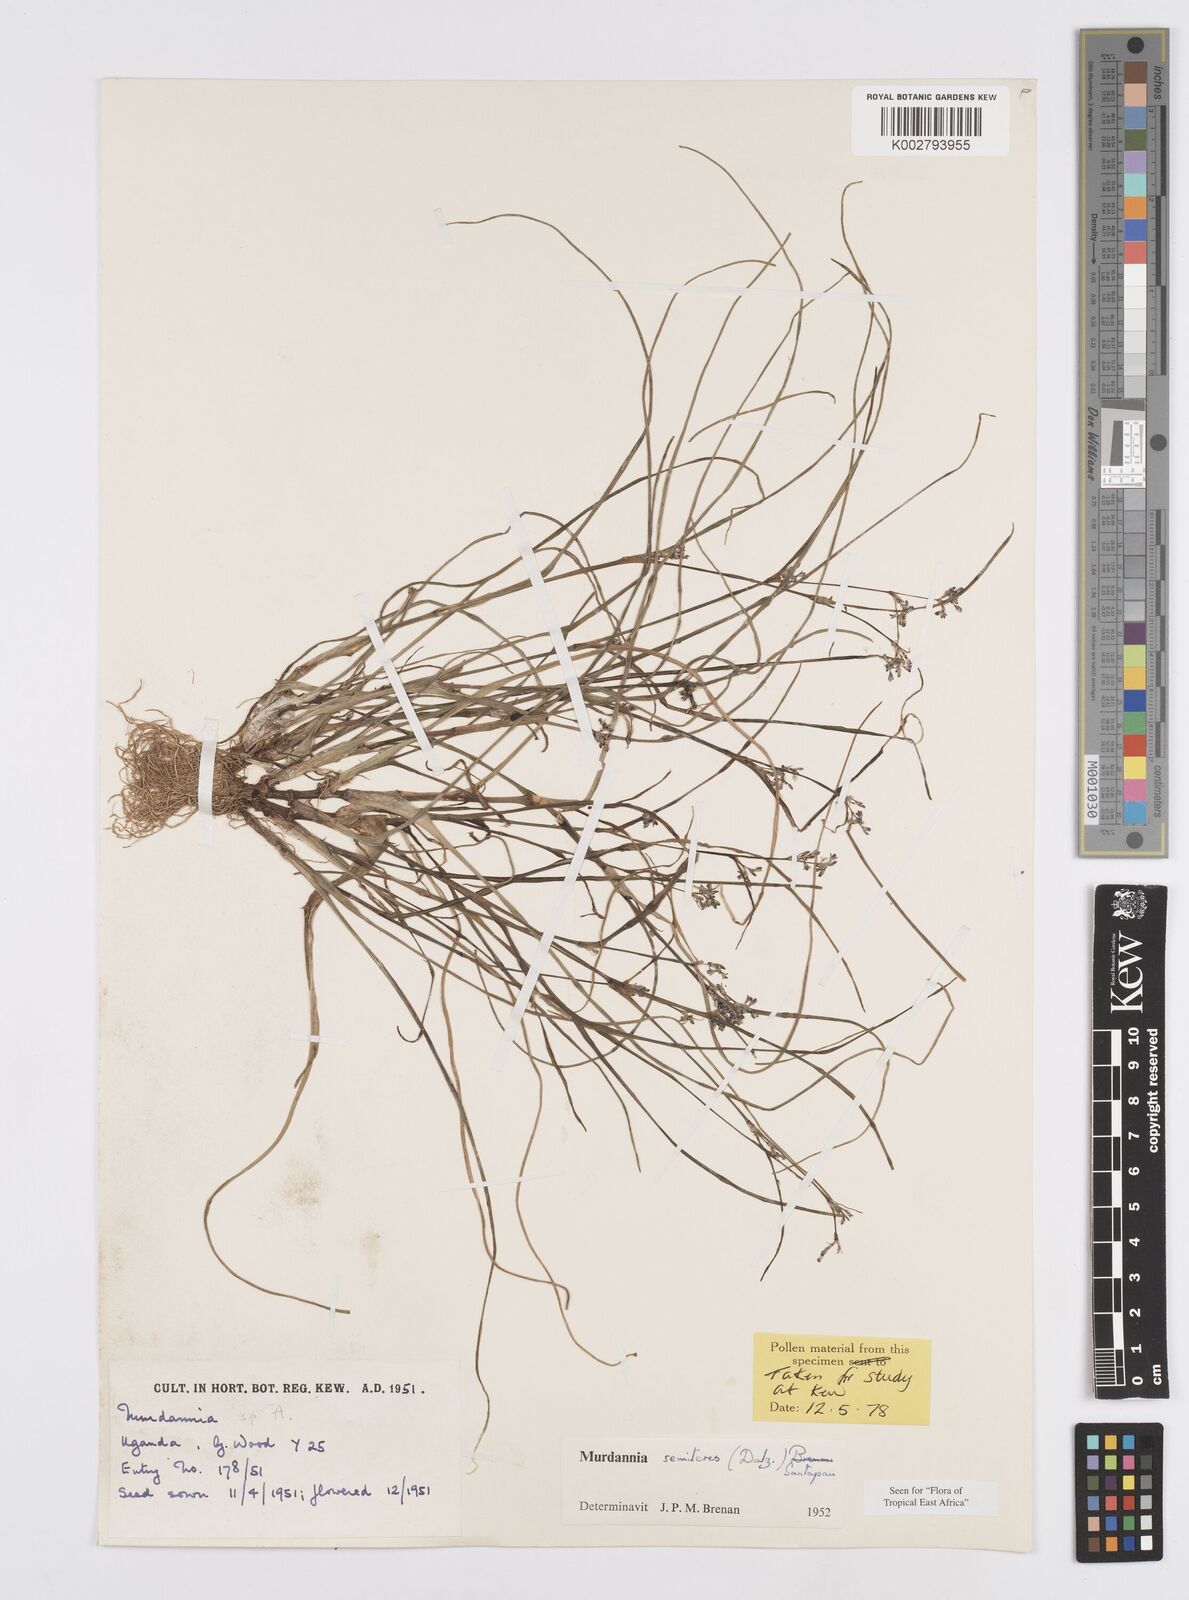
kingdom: Plantae
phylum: Tracheophyta
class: Liliopsida
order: Commelinales
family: Commelinaceae
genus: Murdannia
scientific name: Murdannia semiteres
